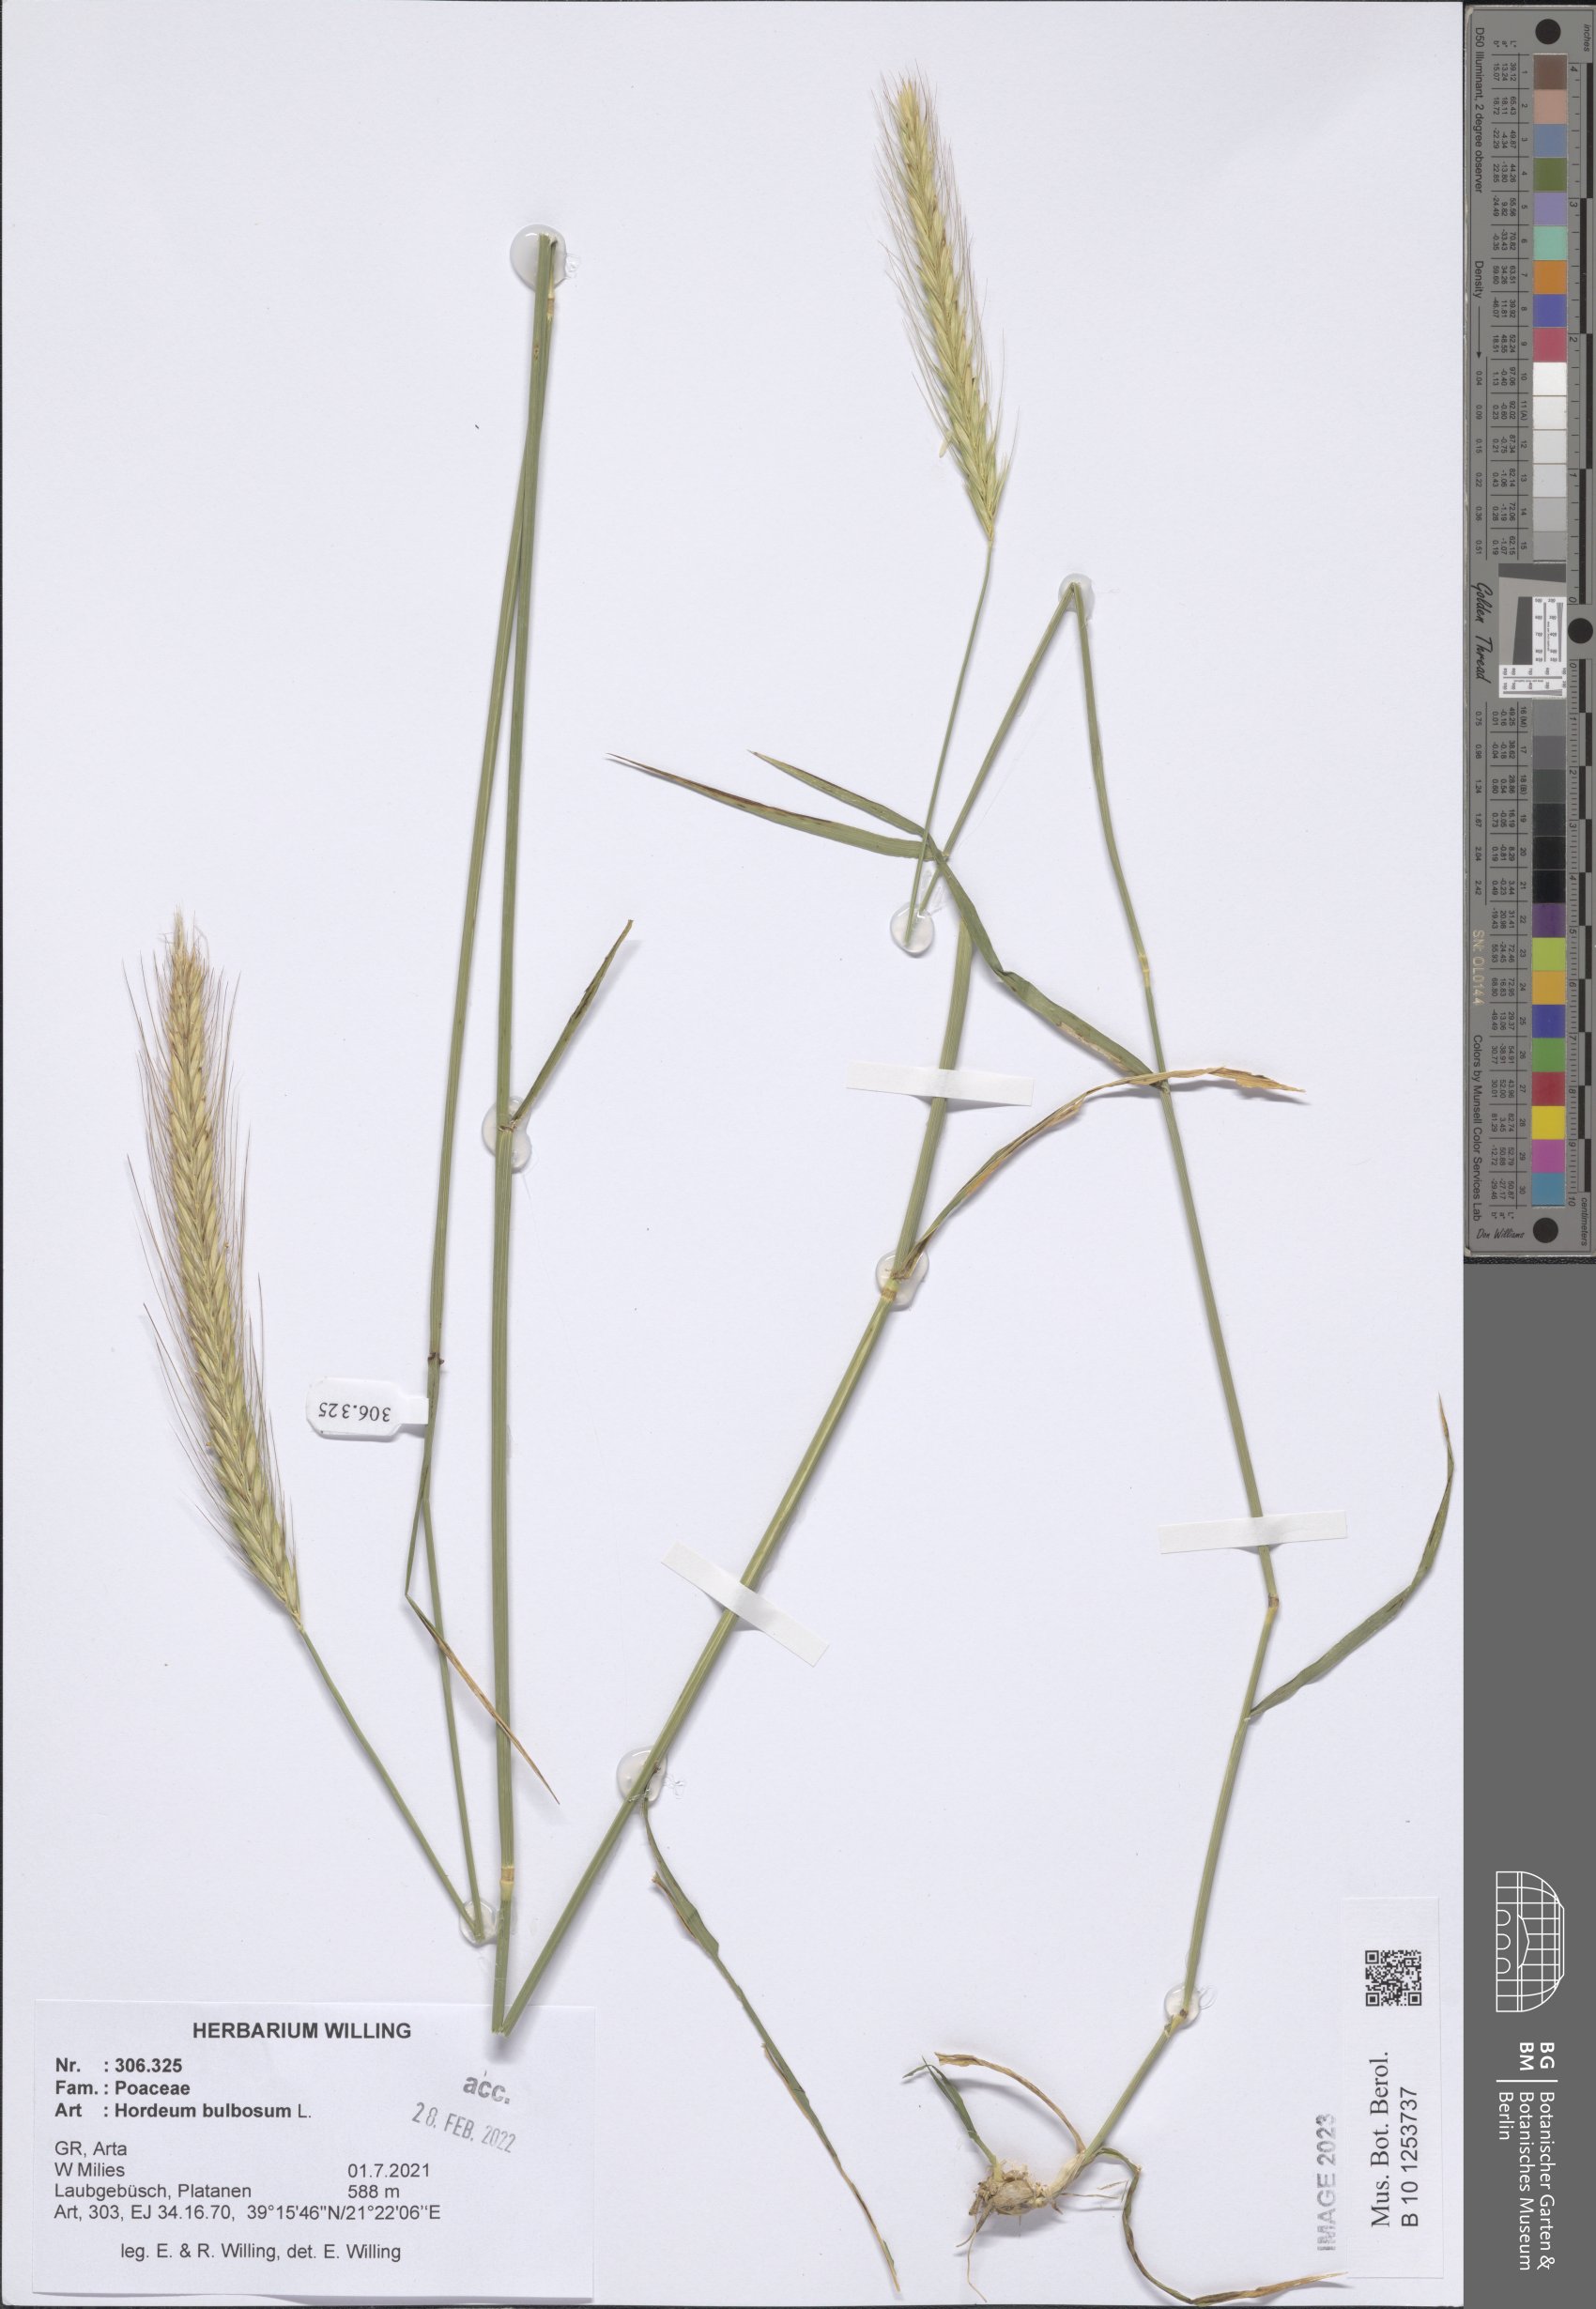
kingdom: Plantae
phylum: Tracheophyta
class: Liliopsida
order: Poales
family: Poaceae
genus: Hordeum
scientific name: Hordeum bulbosum
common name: Bulbous barley
